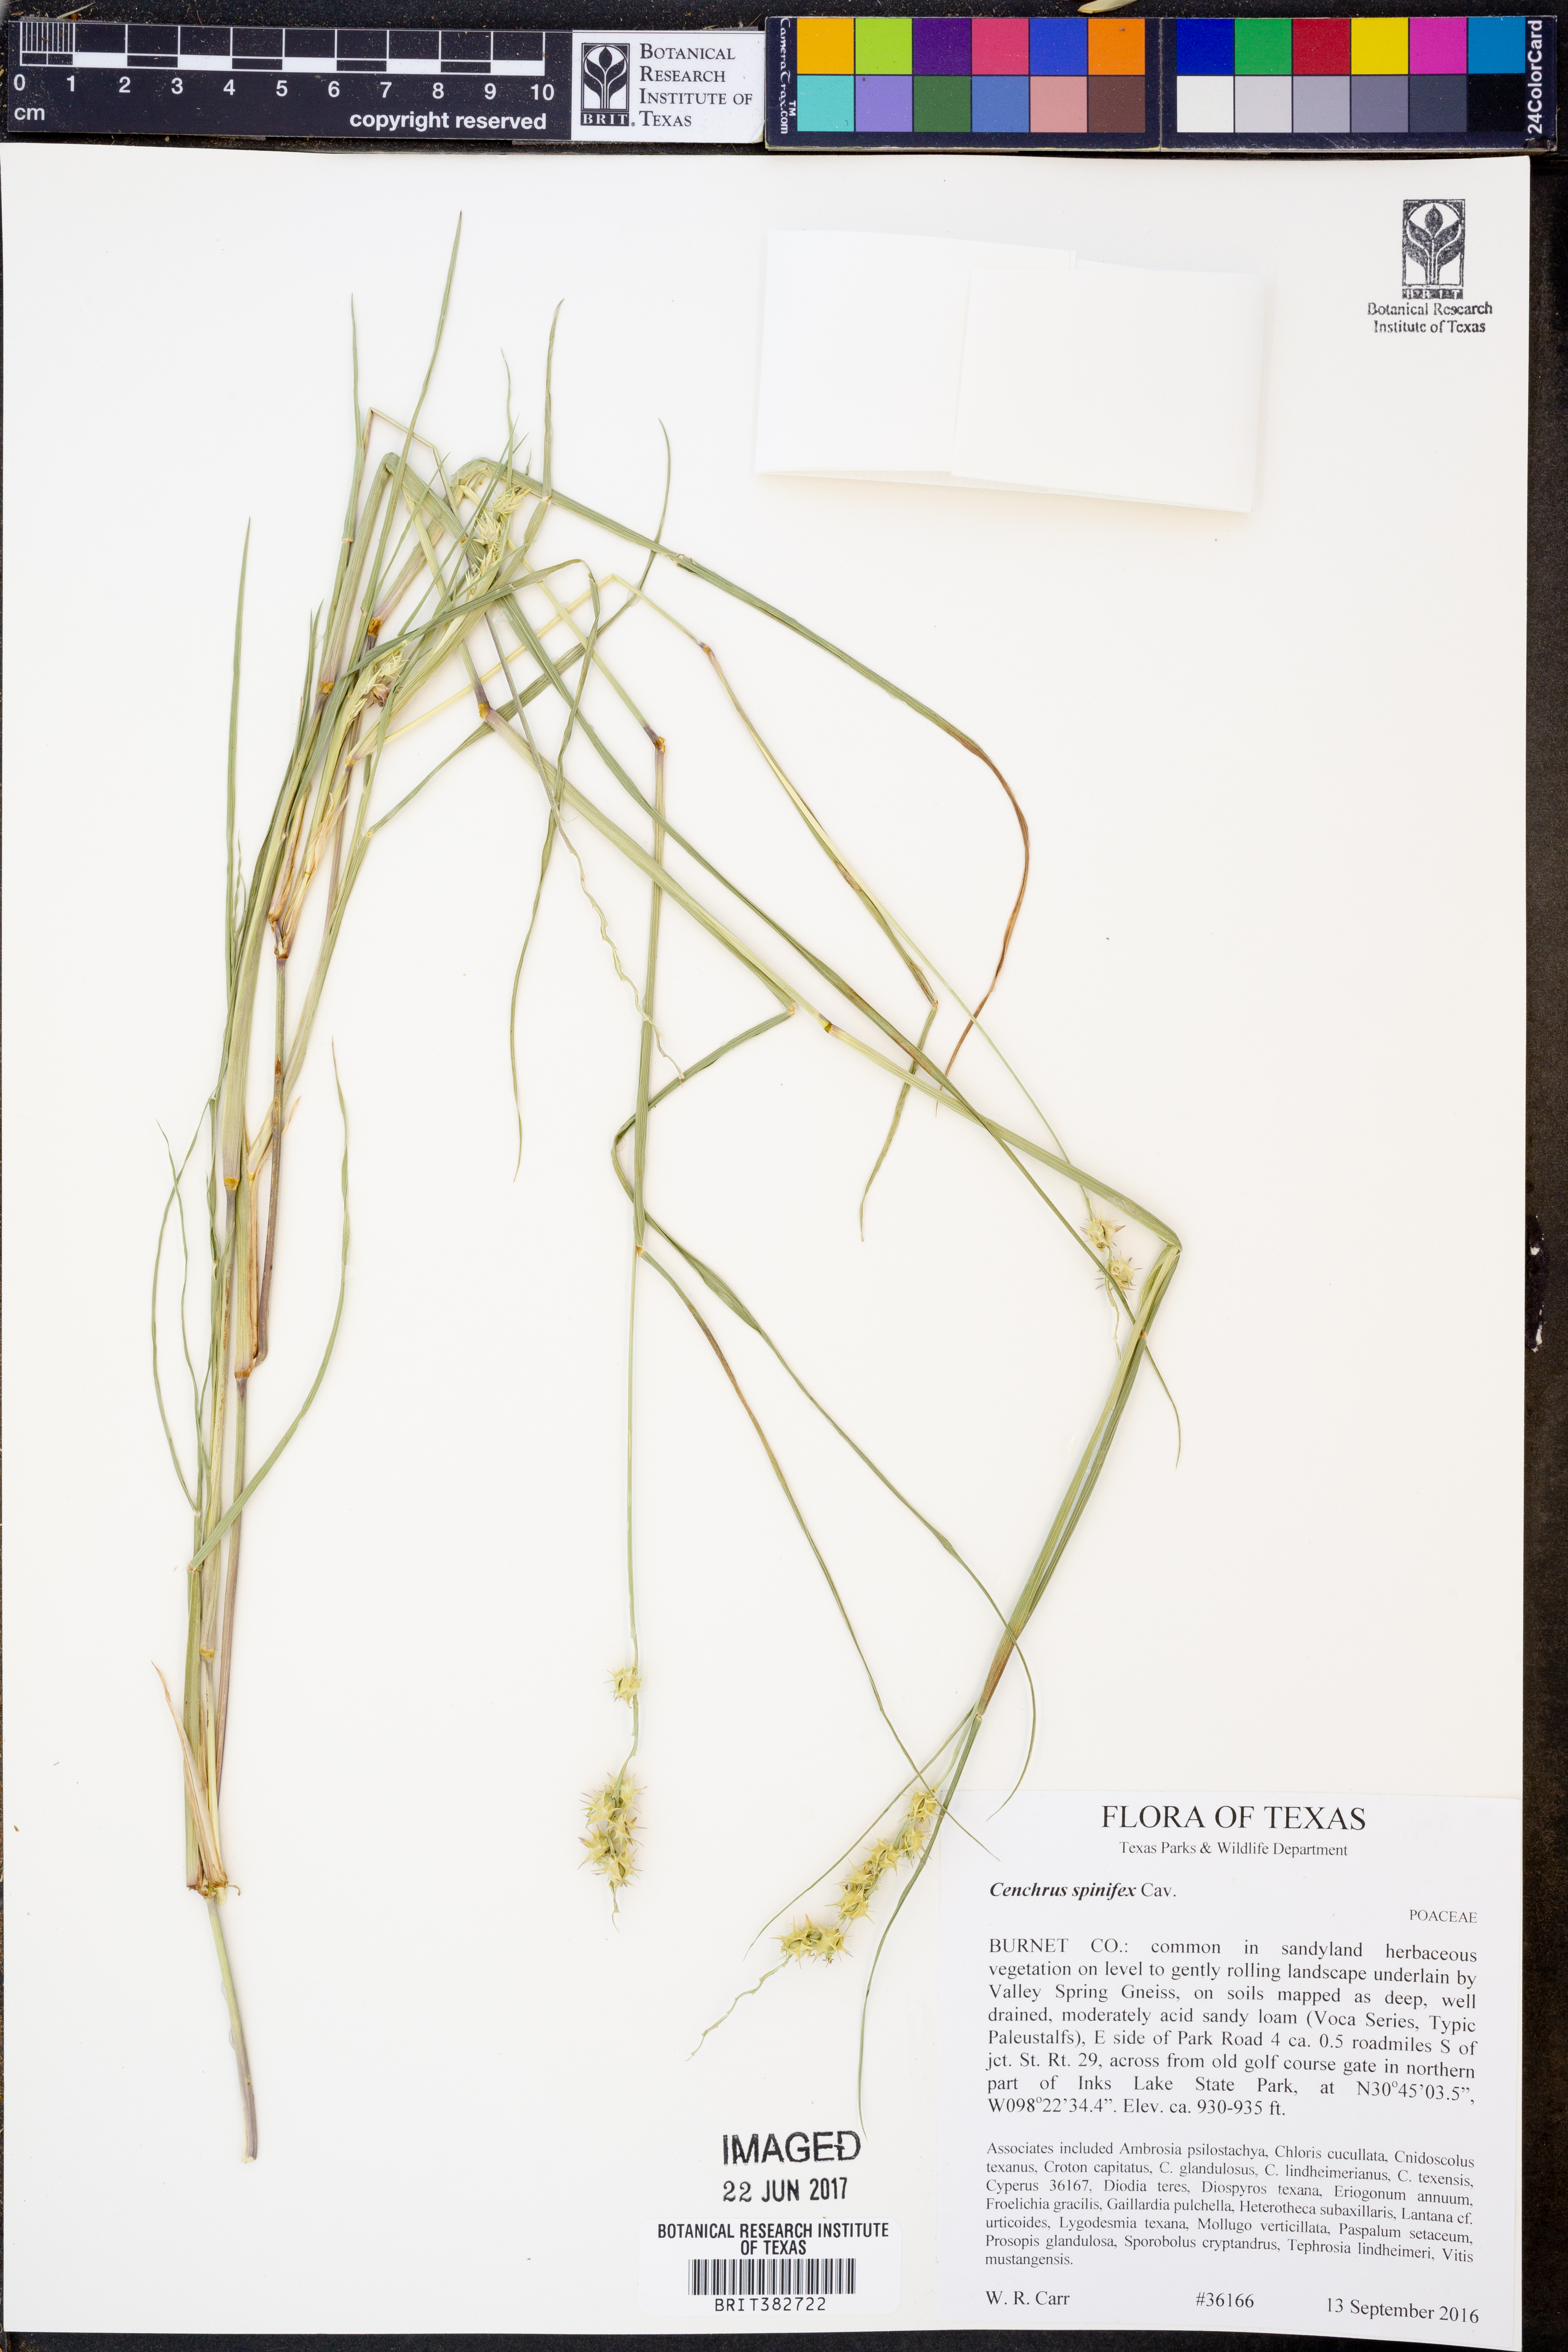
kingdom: Plantae
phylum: Tracheophyta
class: Liliopsida
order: Poales
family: Poaceae
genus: Cenchrus
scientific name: Cenchrus spinifex
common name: Coast sandbur
